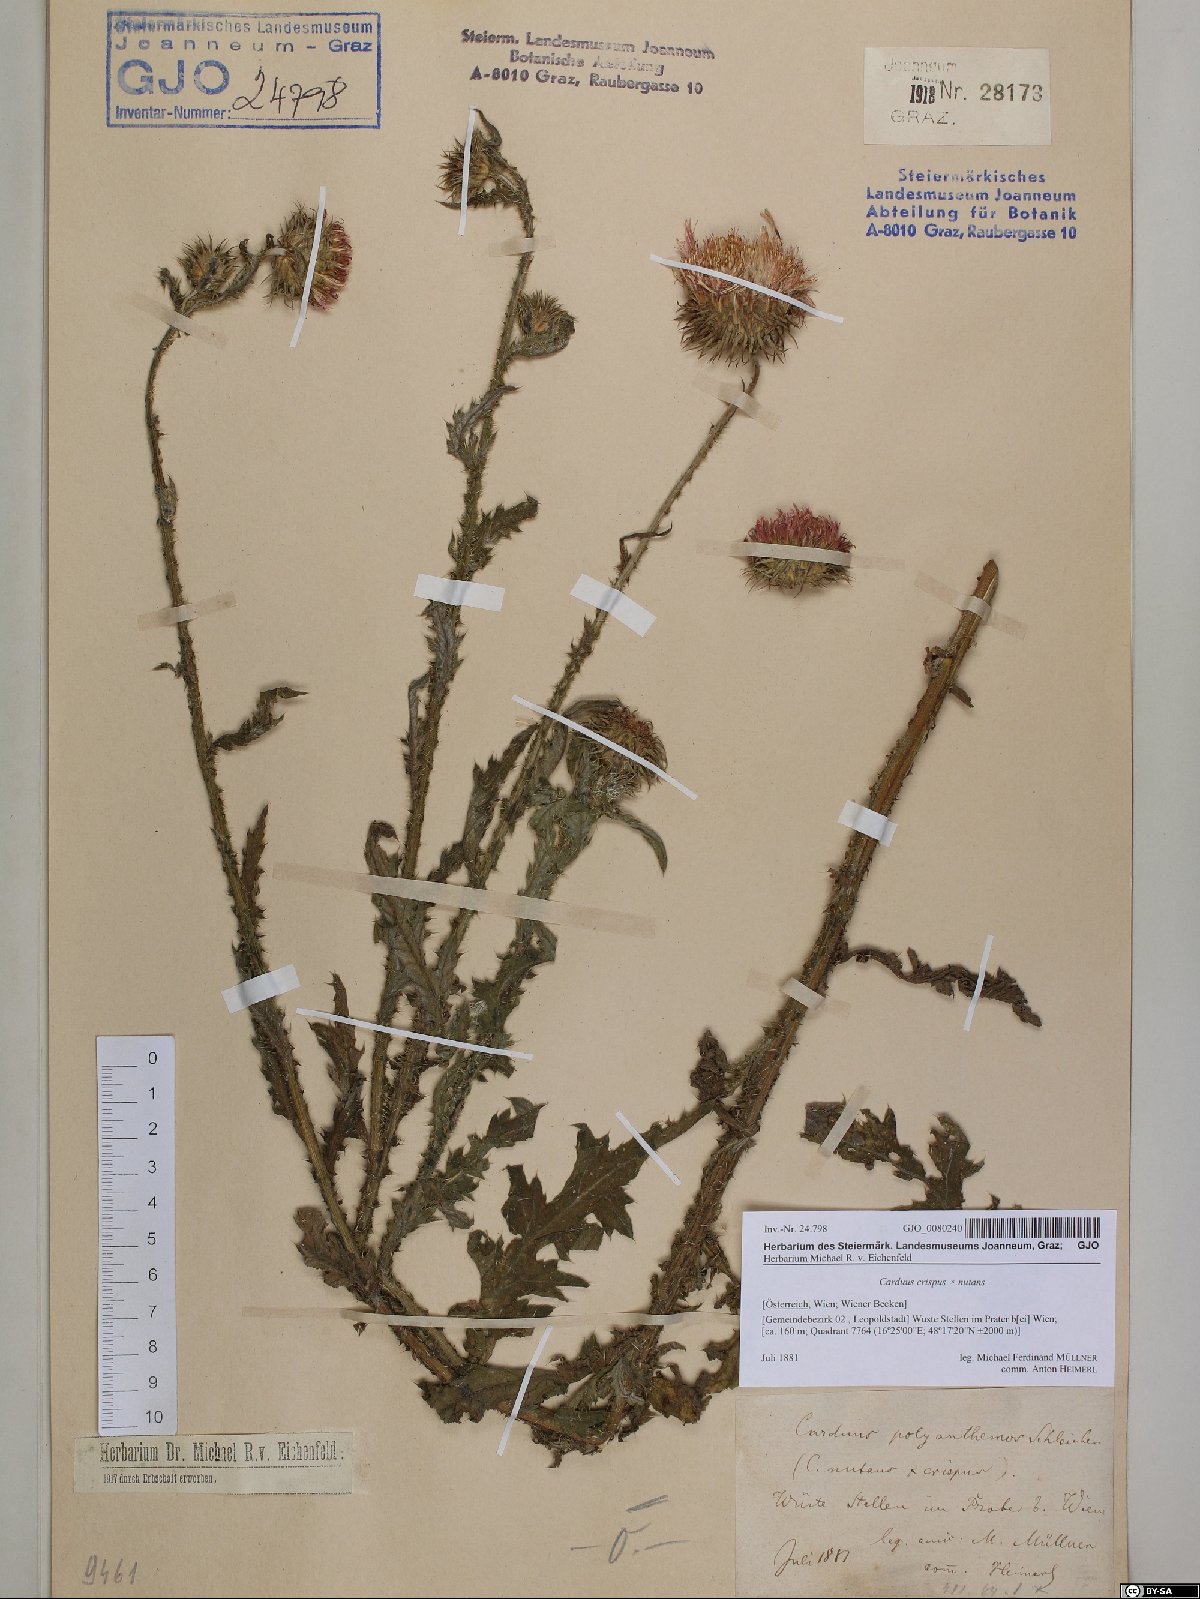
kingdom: Plantae
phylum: Tracheophyta
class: Magnoliopsida
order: Asterales
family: Asteraceae
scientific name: Asteraceae
